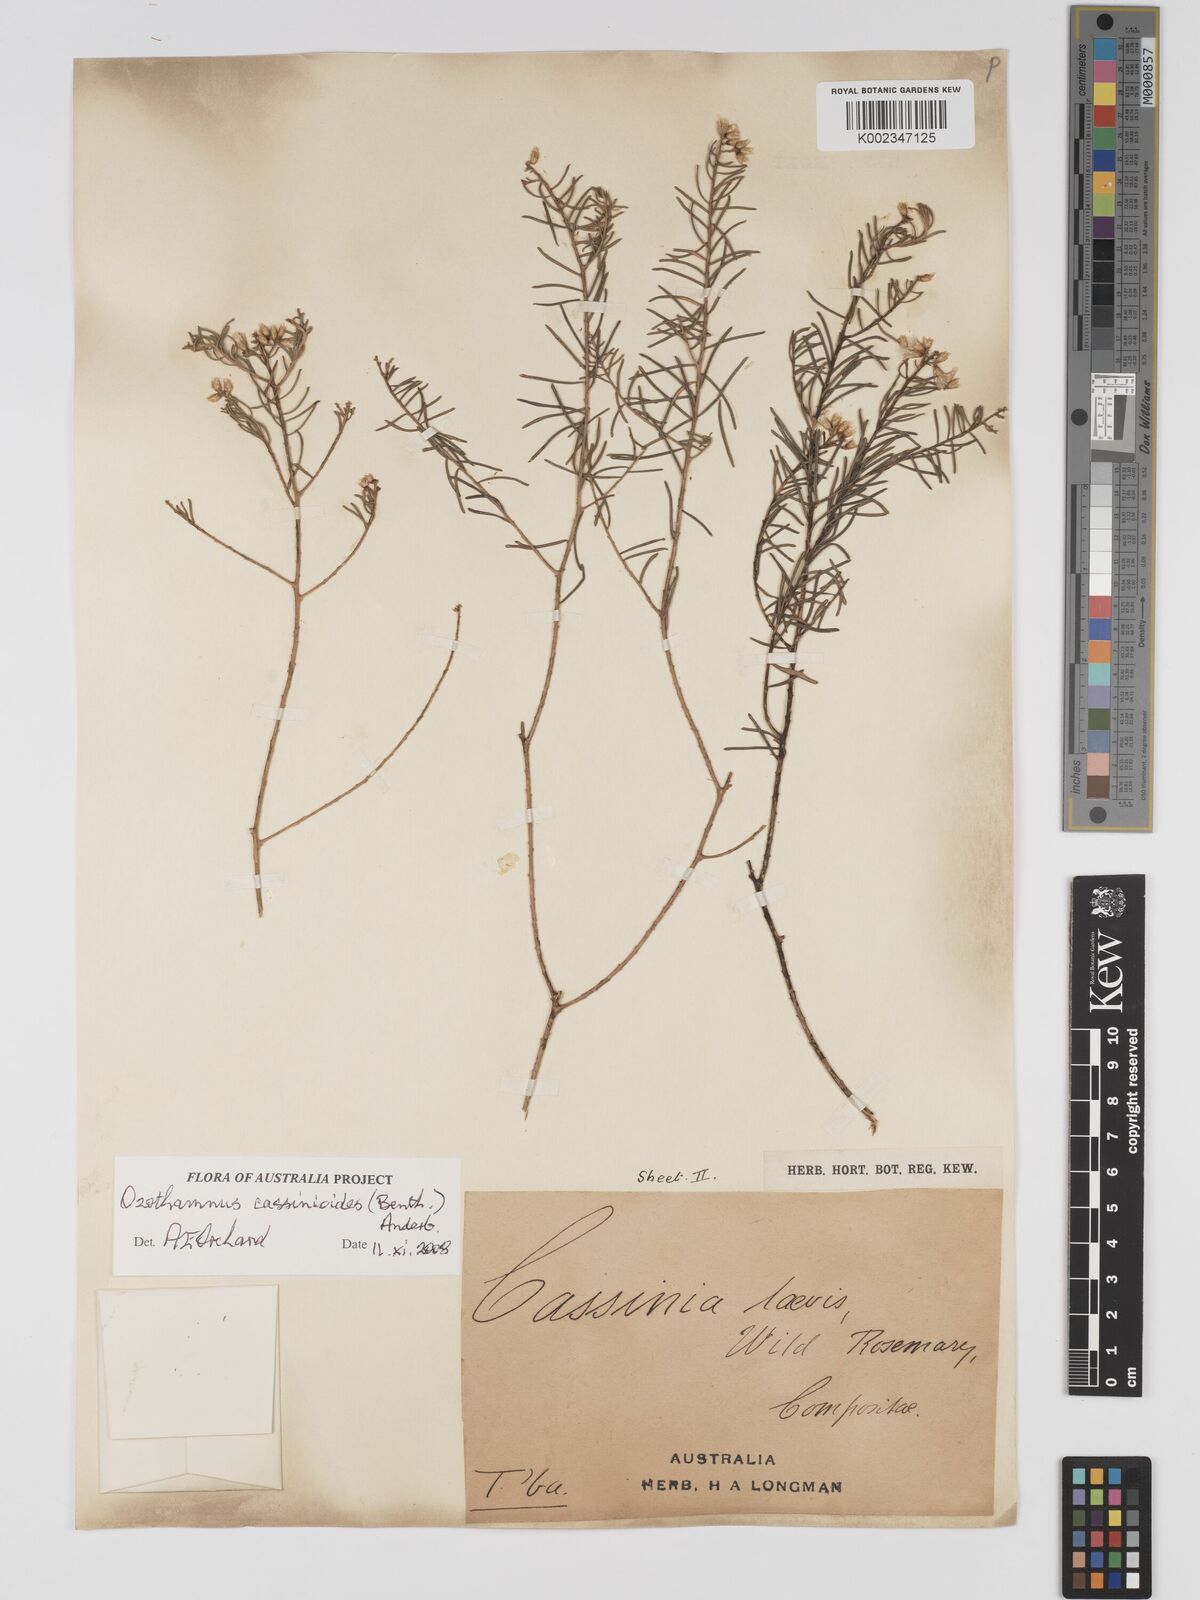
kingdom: Plantae
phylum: Tracheophyta
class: Magnoliopsida
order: Asterales
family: Asteraceae
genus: Ozothamnus
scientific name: Ozothamnus cassinioides
